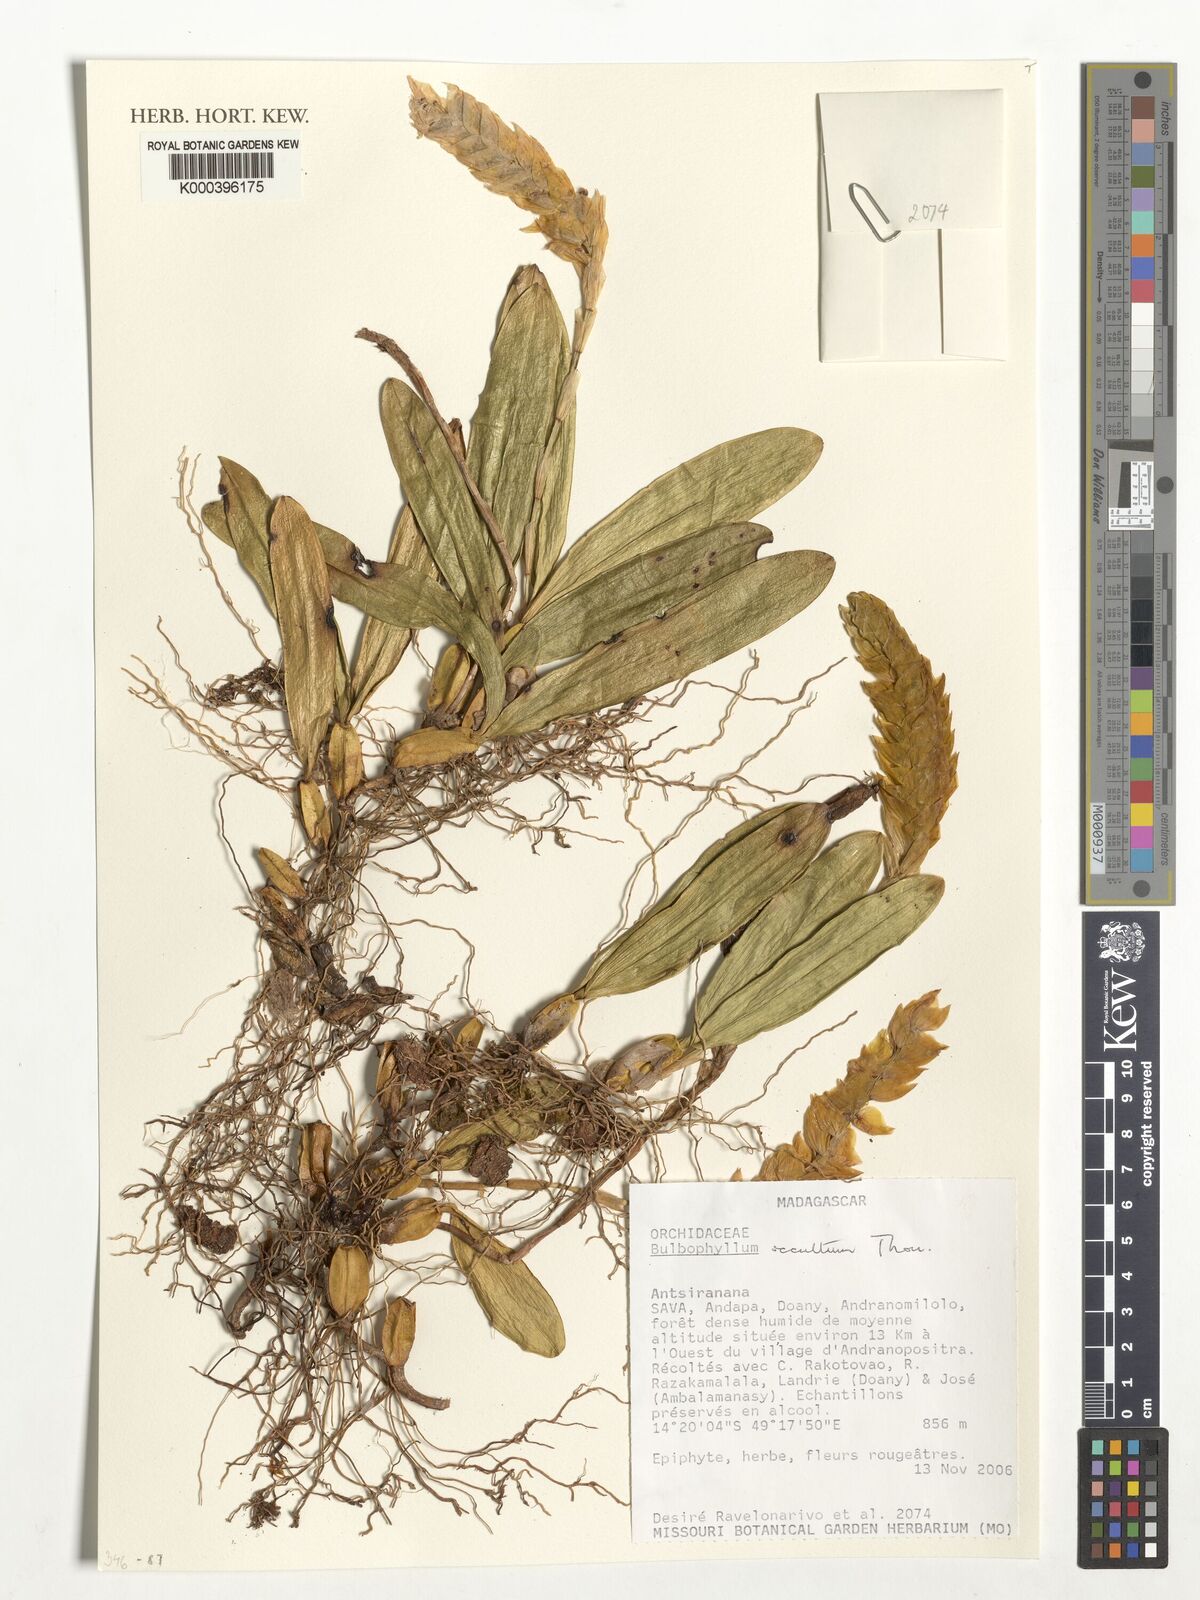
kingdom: Plantae
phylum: Tracheophyta
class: Liliopsida
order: Asparagales
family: Orchidaceae
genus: Bulbophyllum
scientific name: Bulbophyllum occultum
